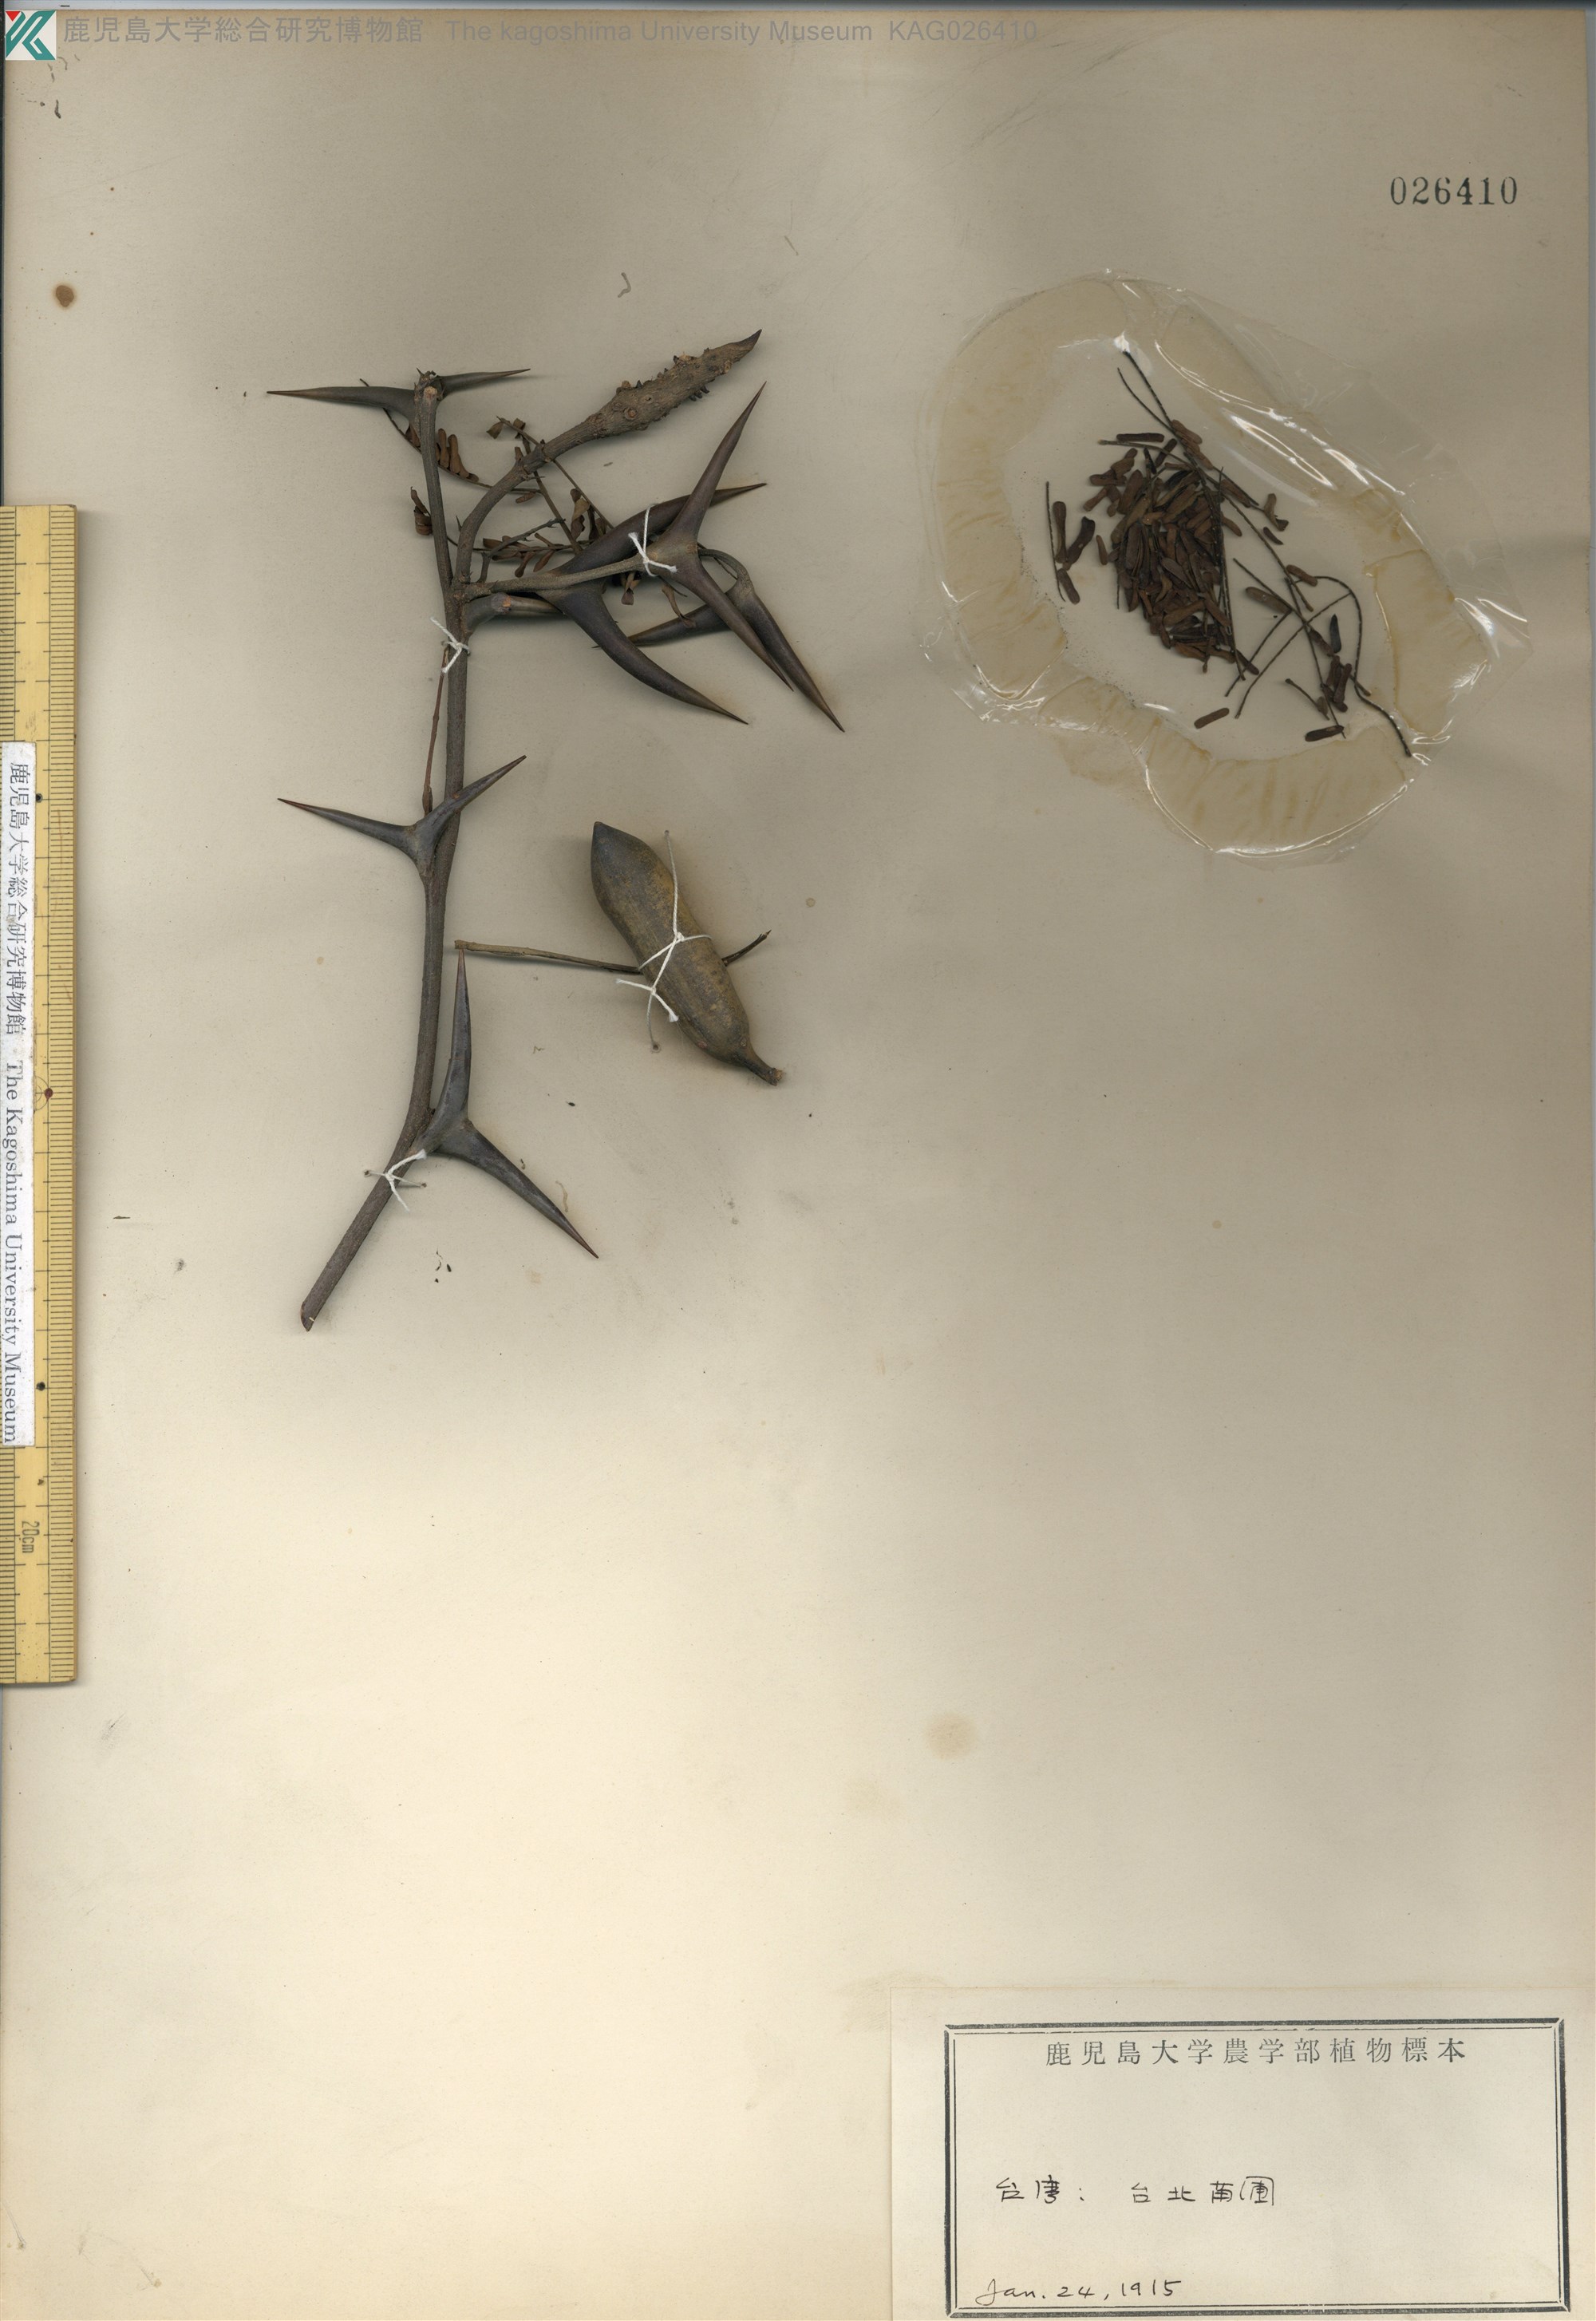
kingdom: Plantae
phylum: Tracheophyta
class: Magnoliopsida
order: Fabales
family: Fabaceae
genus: Acacia
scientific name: Acacia
